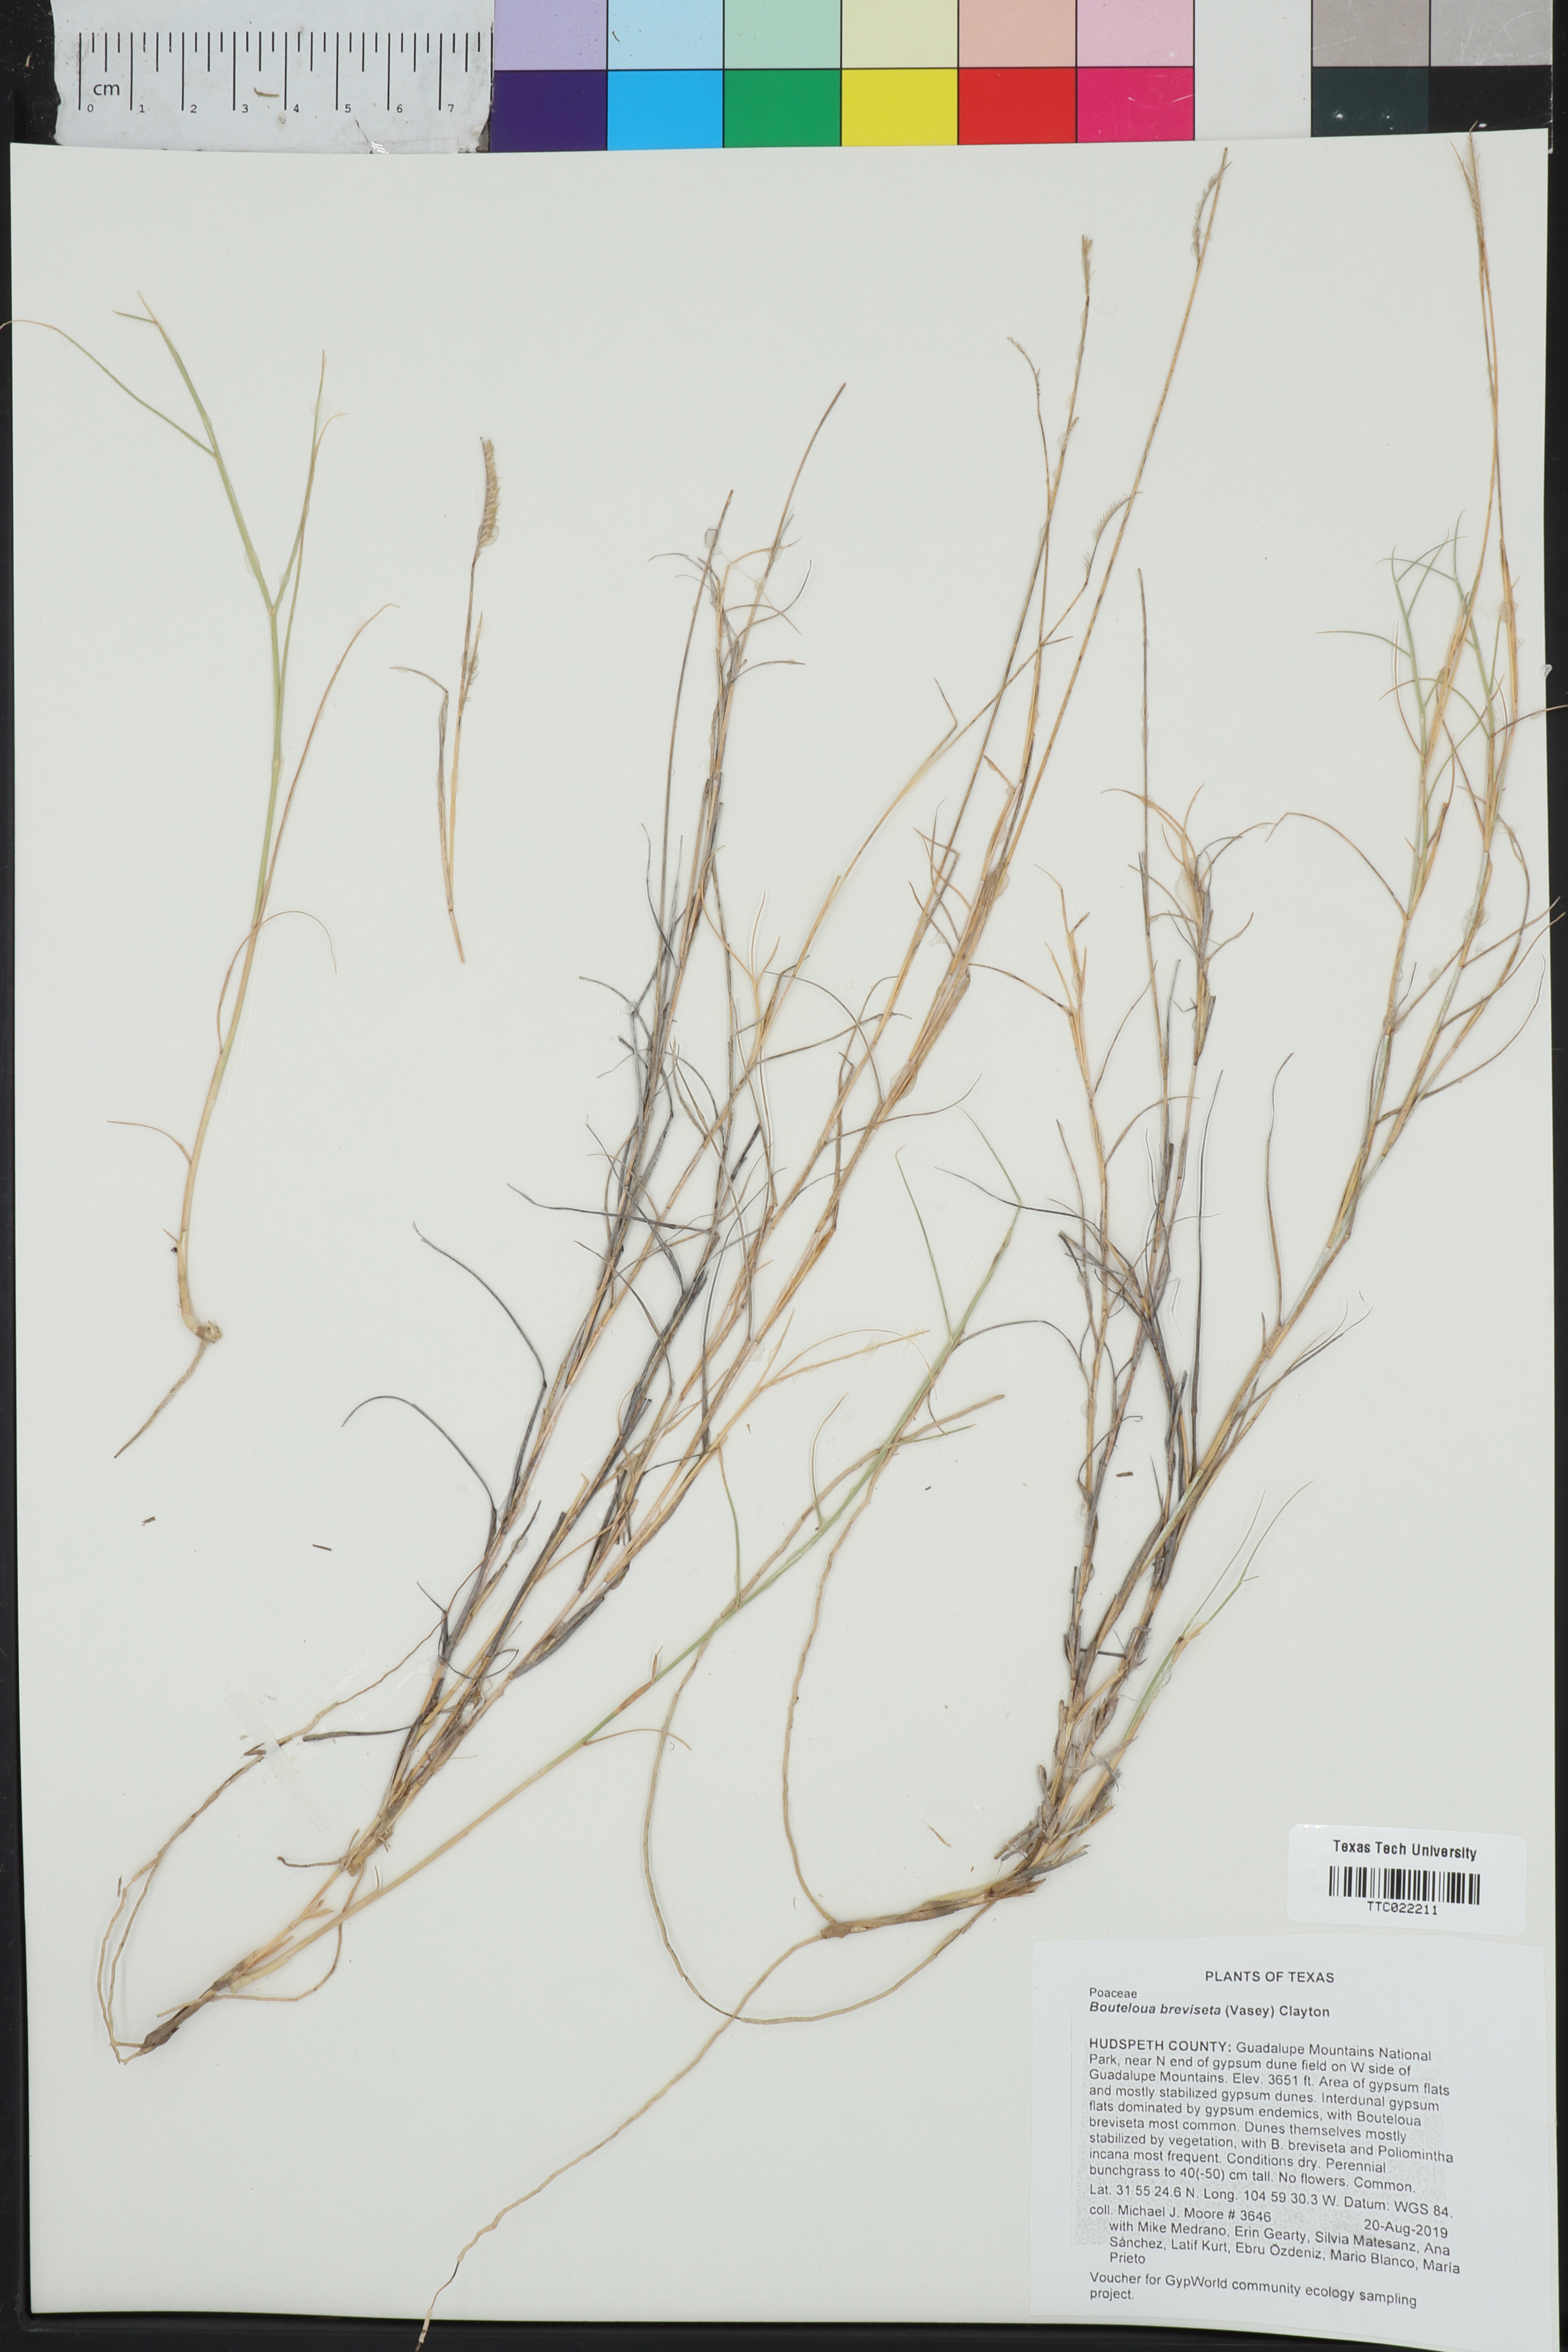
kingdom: Plantae
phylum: Tracheophyta
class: Liliopsida
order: Poales
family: Poaceae
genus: Bouteloua
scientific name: Bouteloua breviseta
